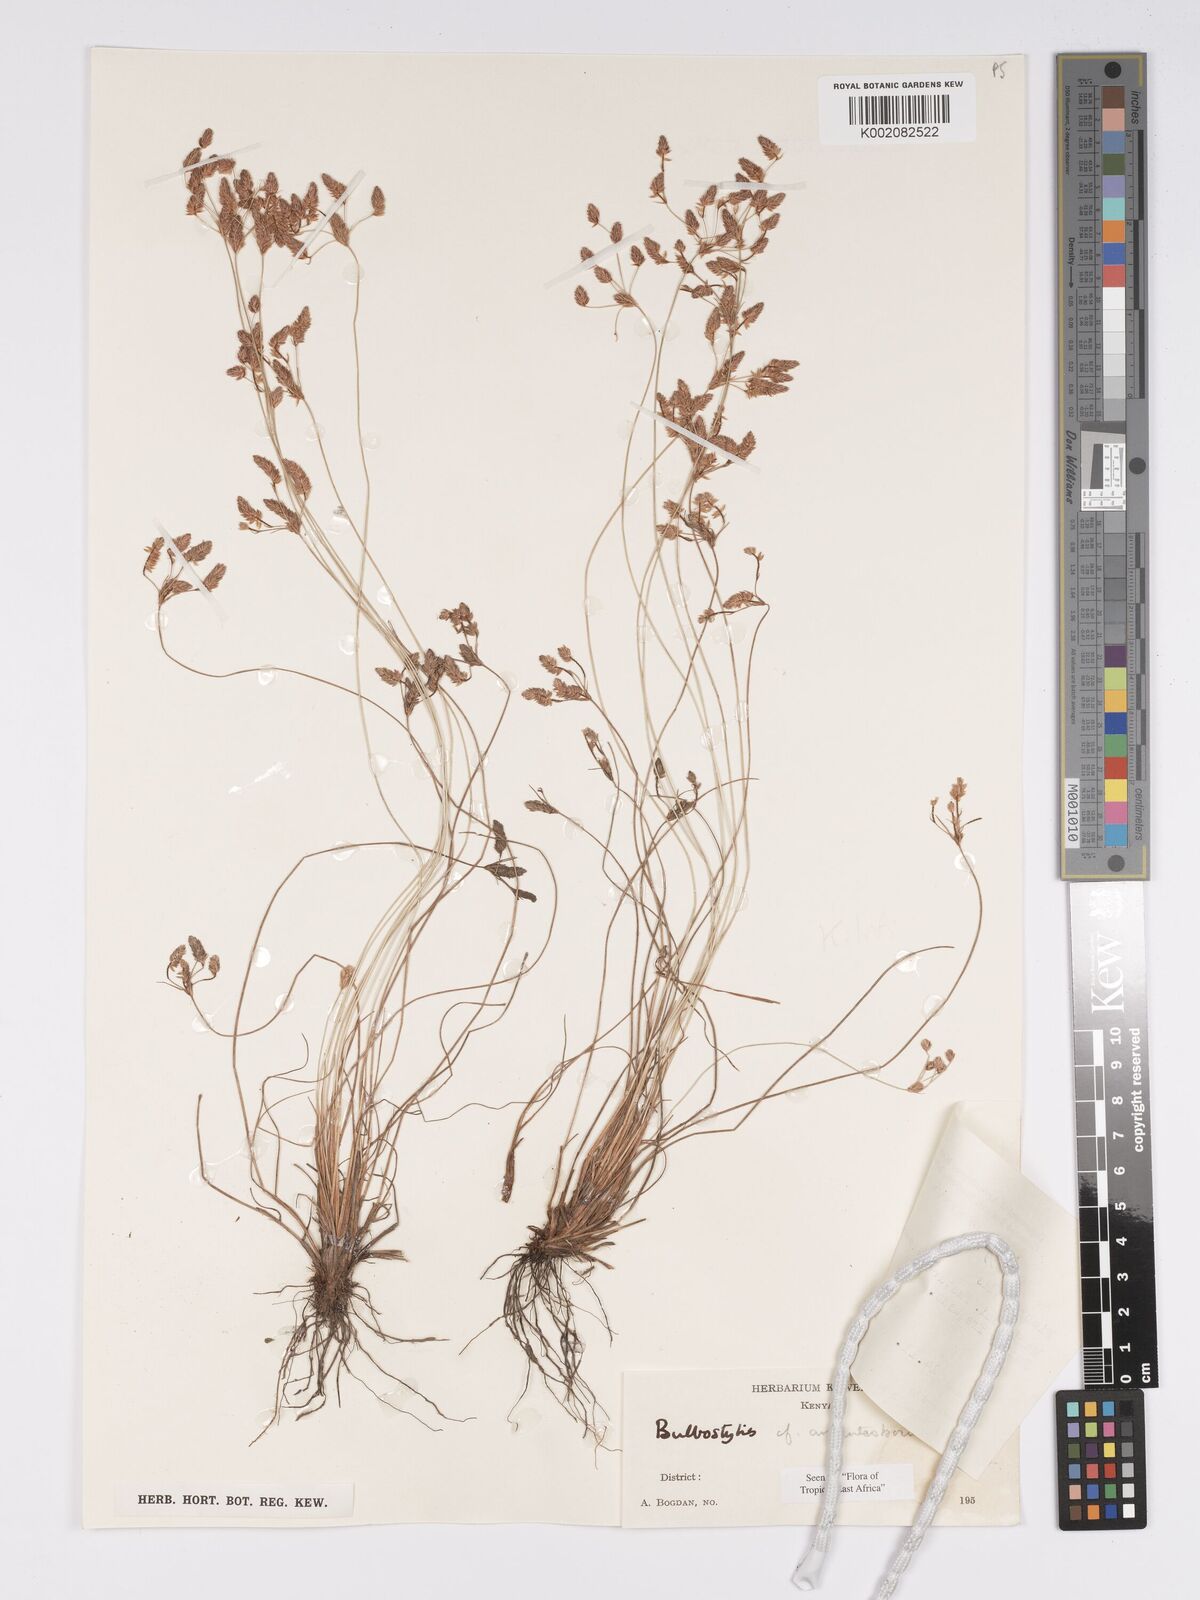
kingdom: Plantae
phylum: Tracheophyta
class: Liliopsida
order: Poales
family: Cyperaceae
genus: Bulbostylis
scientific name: Bulbostylis argenteobrunea
